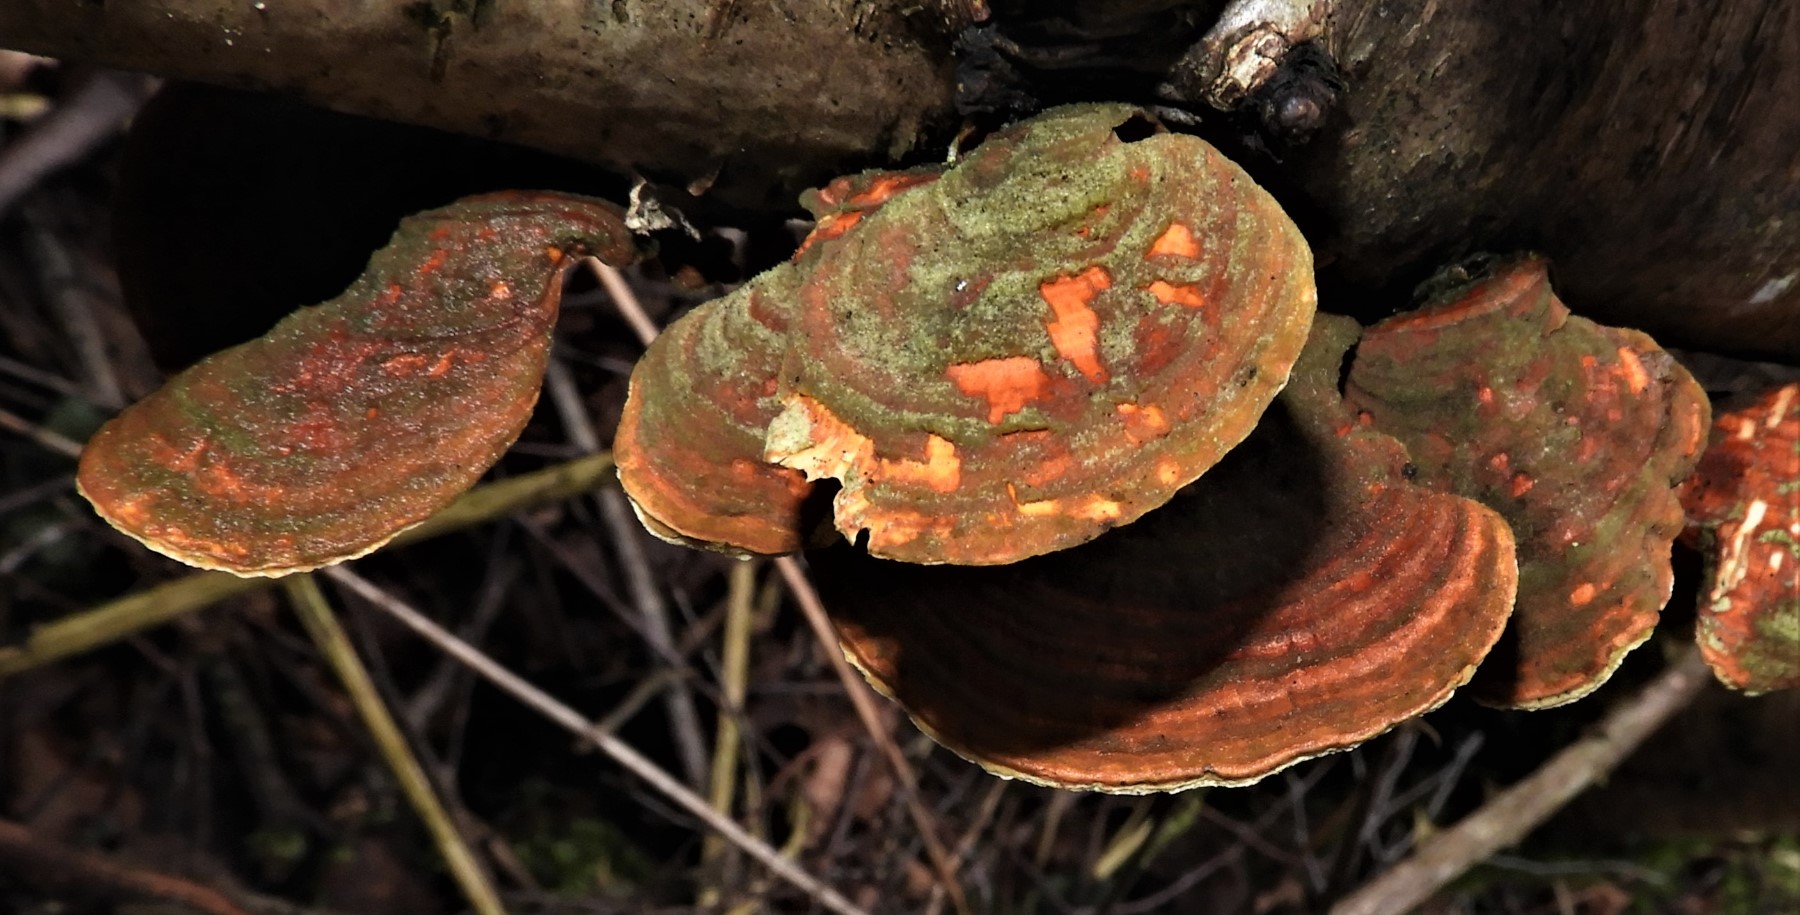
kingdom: Fungi
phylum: Basidiomycota
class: Agaricomycetes
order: Russulales
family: Stereaceae
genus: Stereum
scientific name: Stereum subtomentosum
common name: smuk lædersvamp
